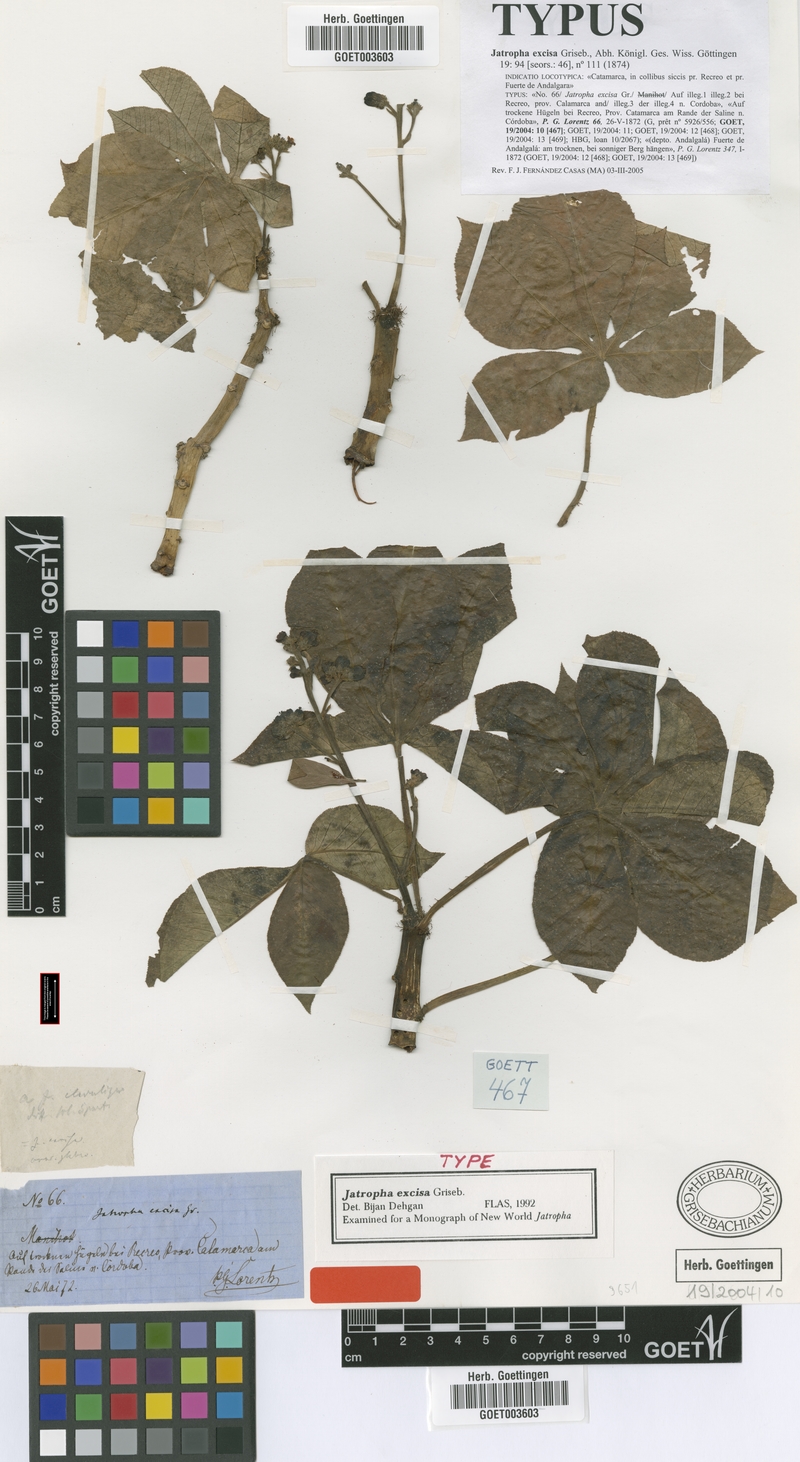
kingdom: Plantae
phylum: Tracheophyta
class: Magnoliopsida
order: Malpighiales
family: Euphorbiaceae
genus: Jatropha
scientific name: Jatropha excisa
